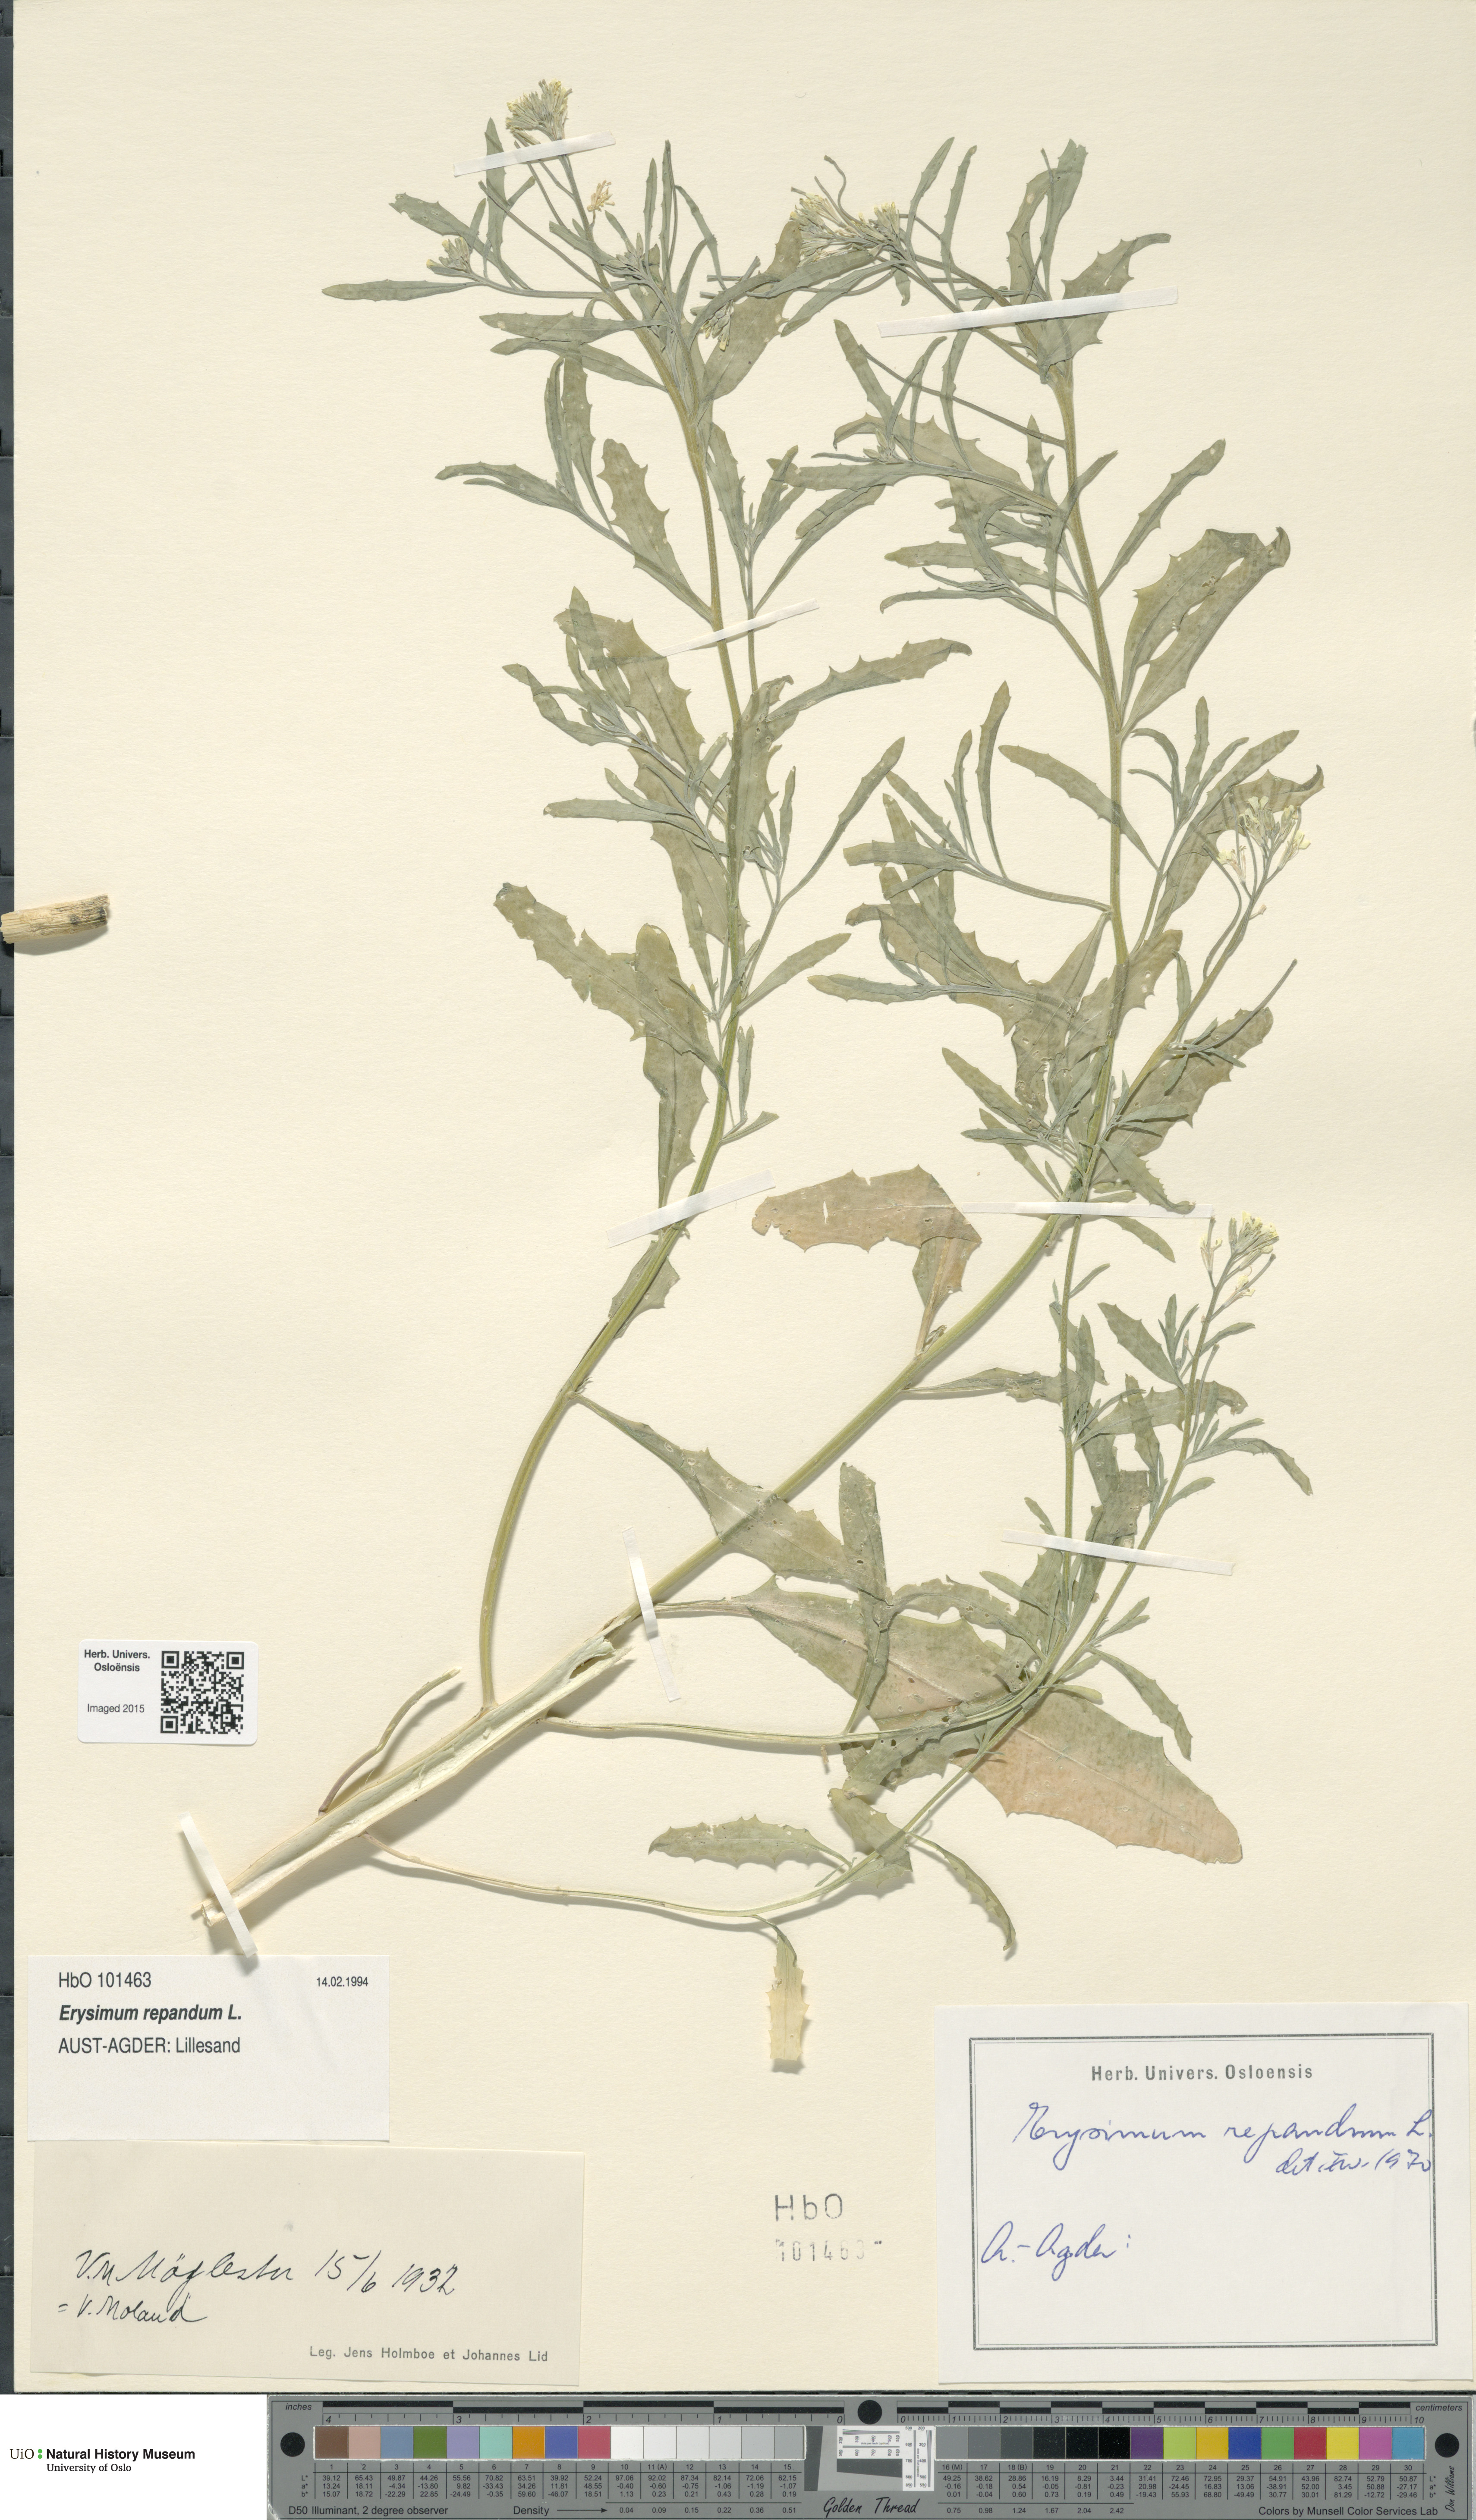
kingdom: Plantae
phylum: Tracheophyta
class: Magnoliopsida
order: Brassicales
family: Brassicaceae
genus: Erysimum
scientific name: Erysimum repandum
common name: Spreading wallflower
